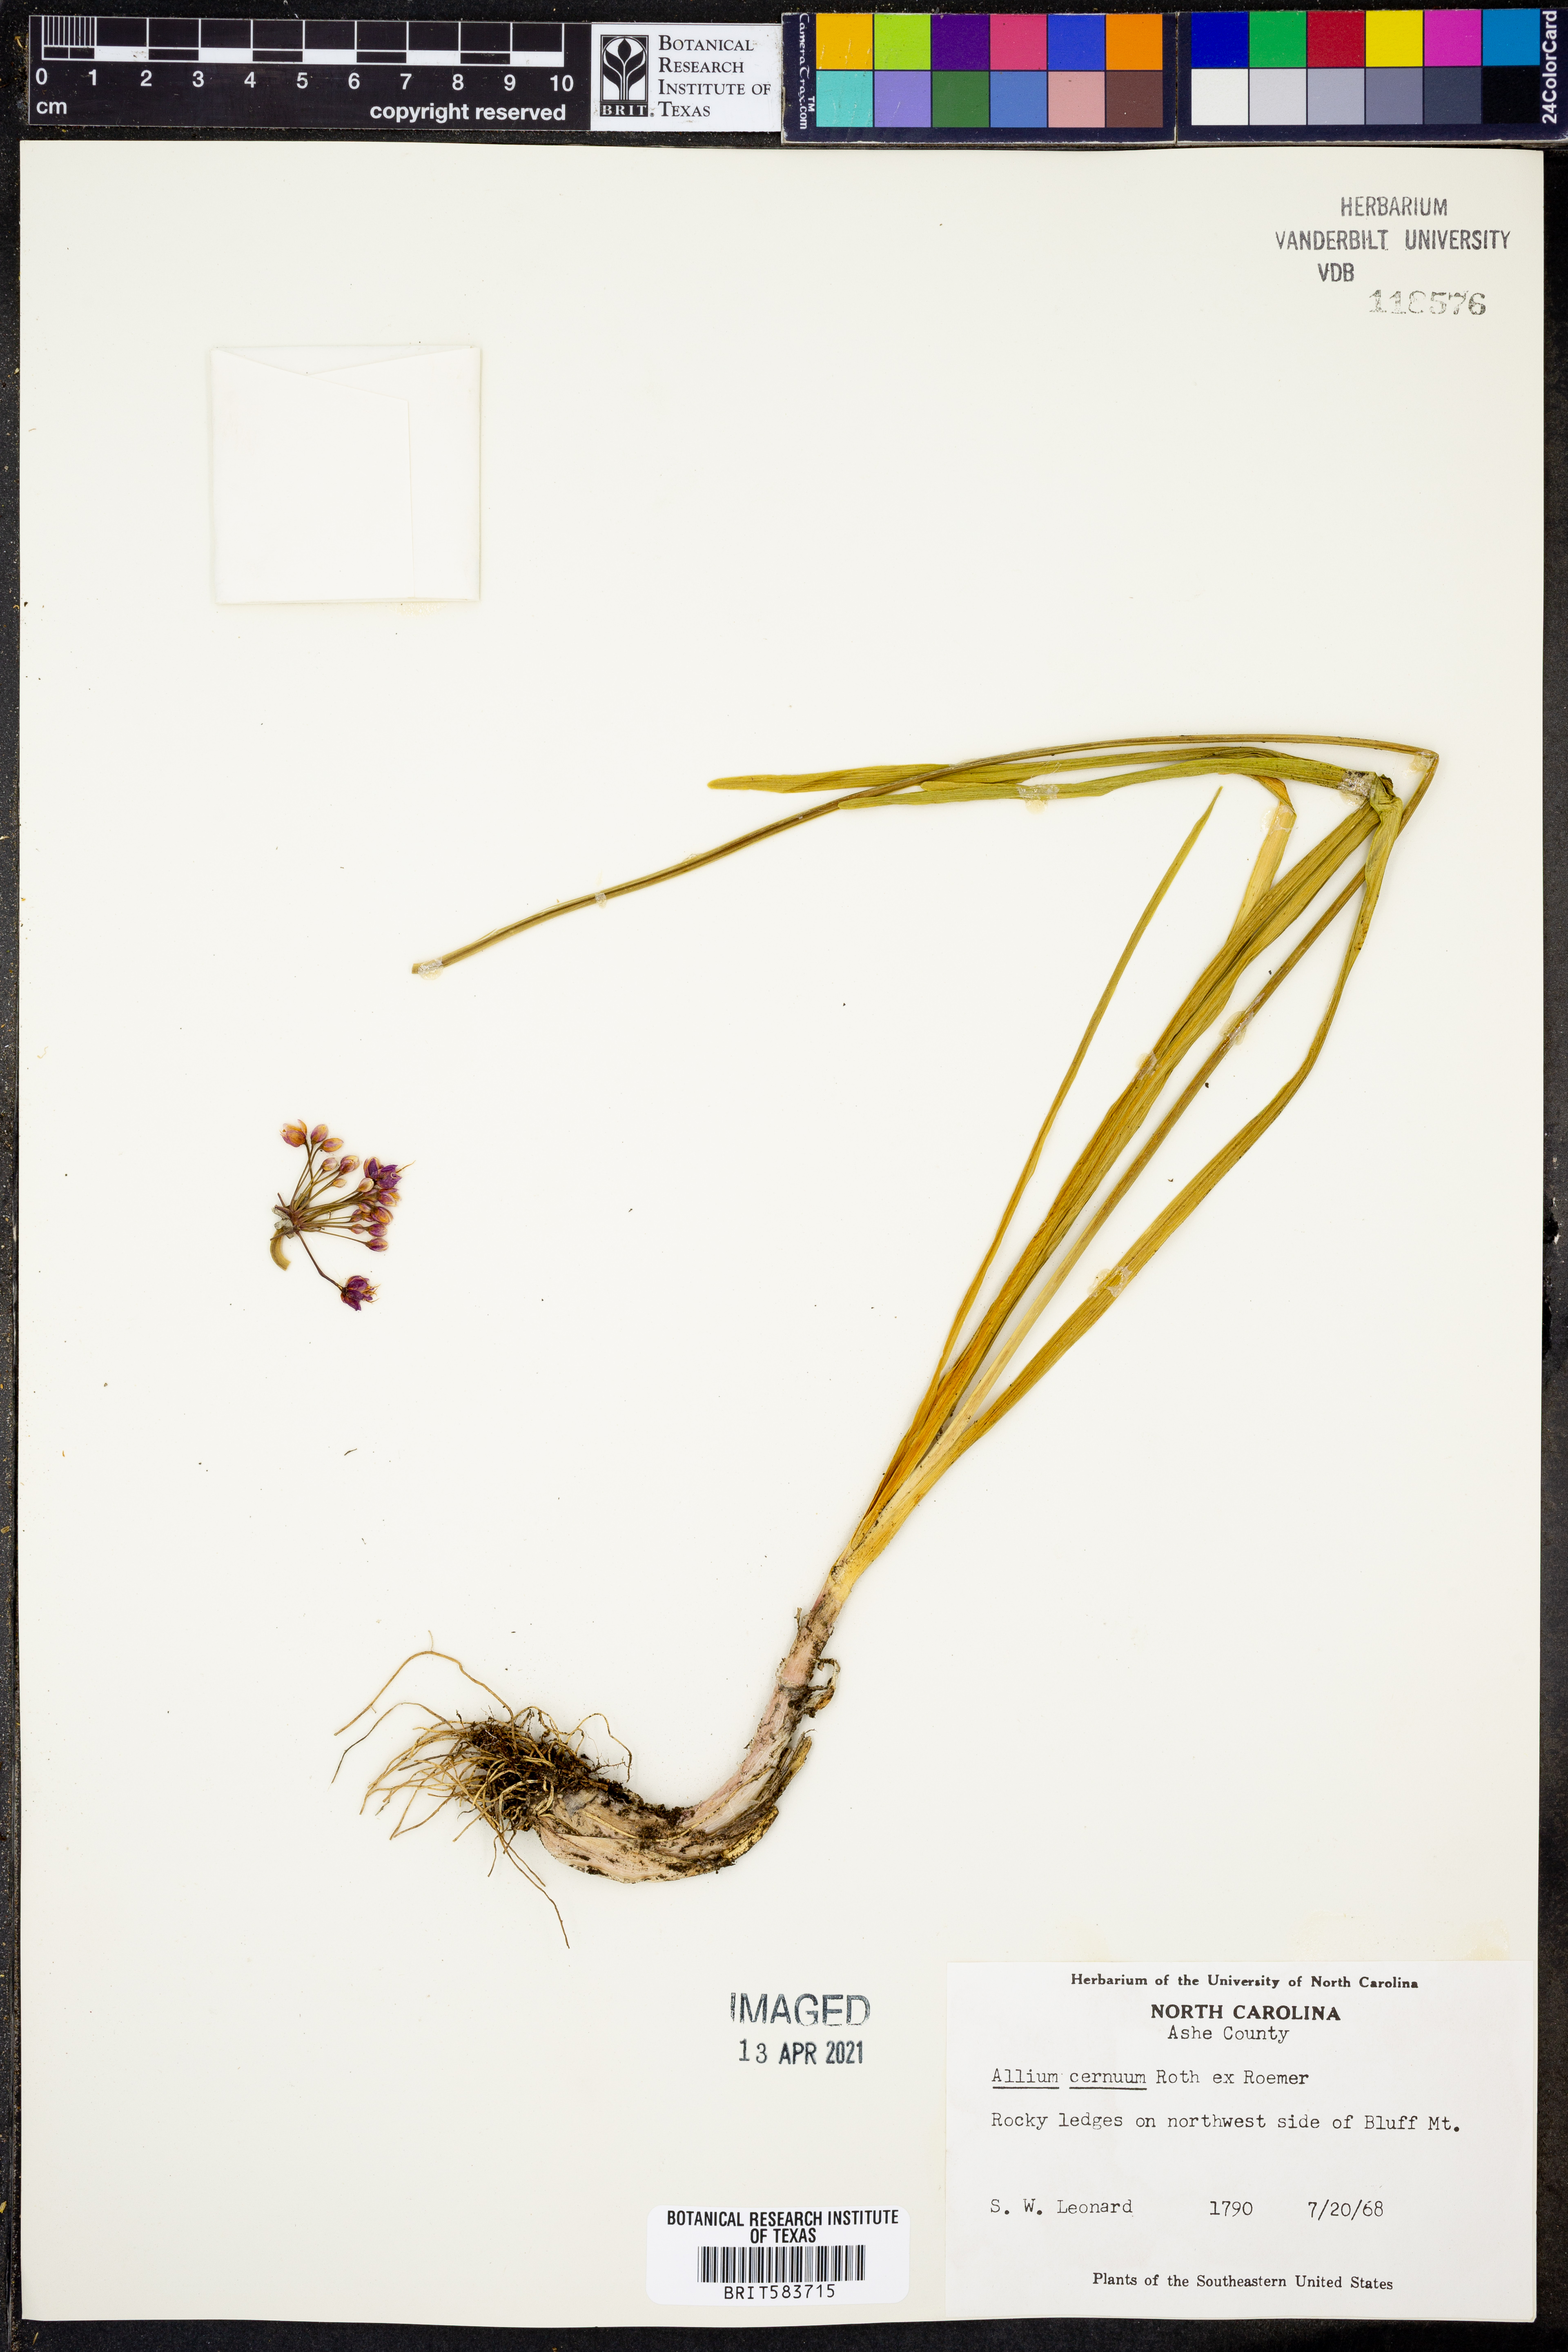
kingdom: Plantae
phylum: Tracheophyta
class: Liliopsida
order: Asparagales
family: Amaryllidaceae
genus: Allium
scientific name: Allium cernuum
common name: Nodding onion
